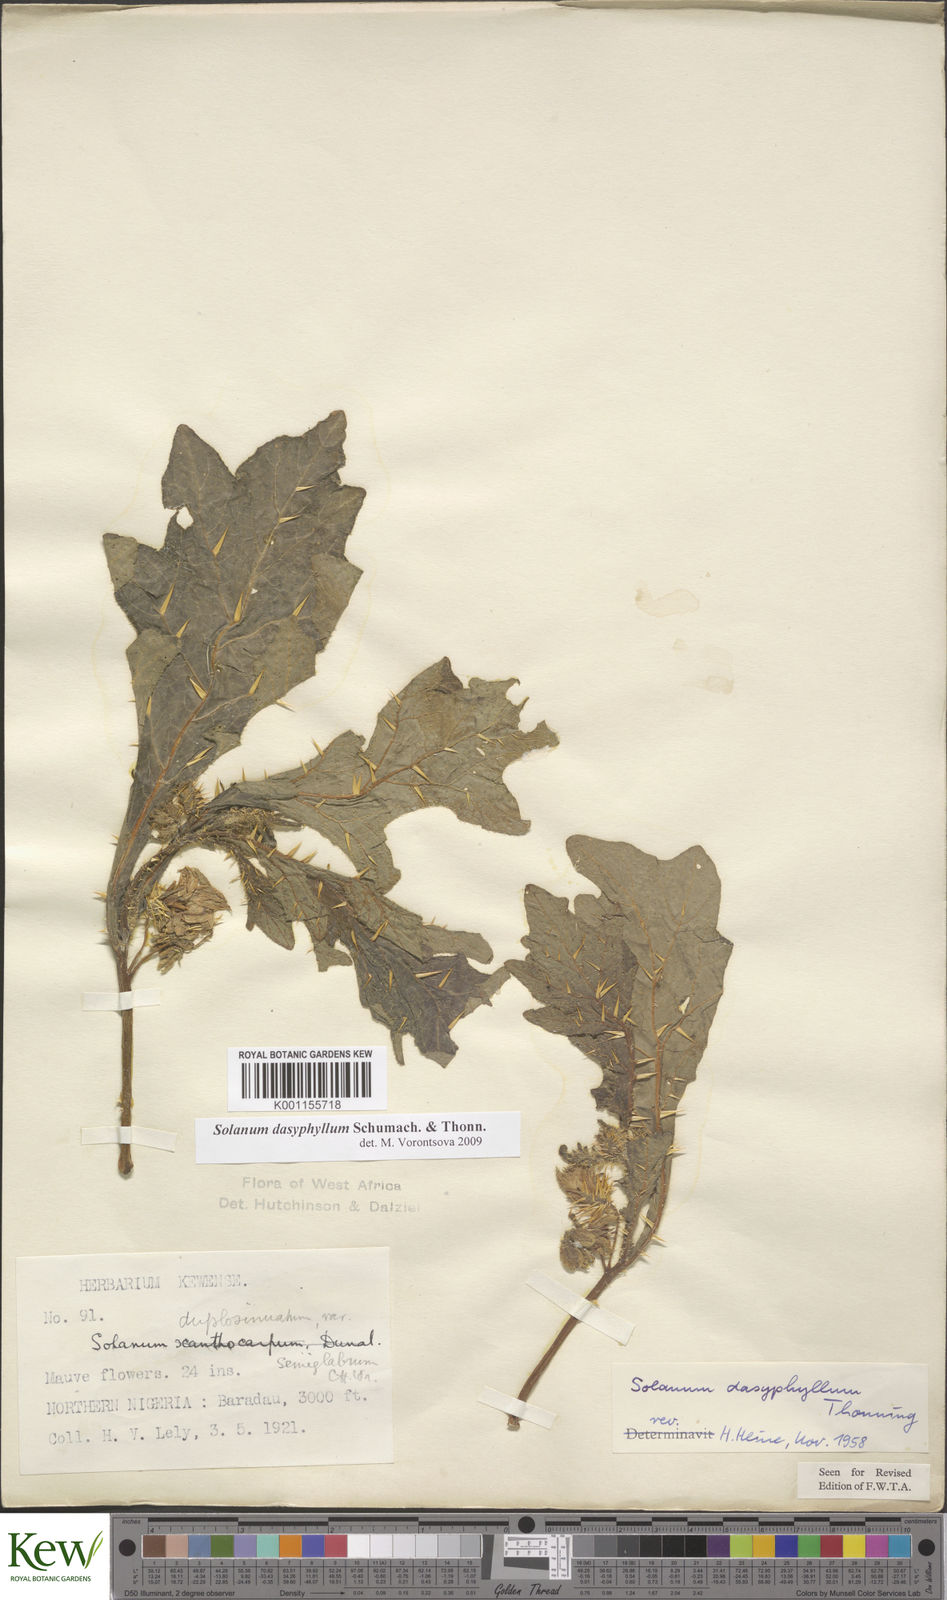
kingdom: Plantae
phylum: Tracheophyta
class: Magnoliopsida
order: Solanales
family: Solanaceae
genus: Solanum
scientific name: Solanum dasyphyllum
